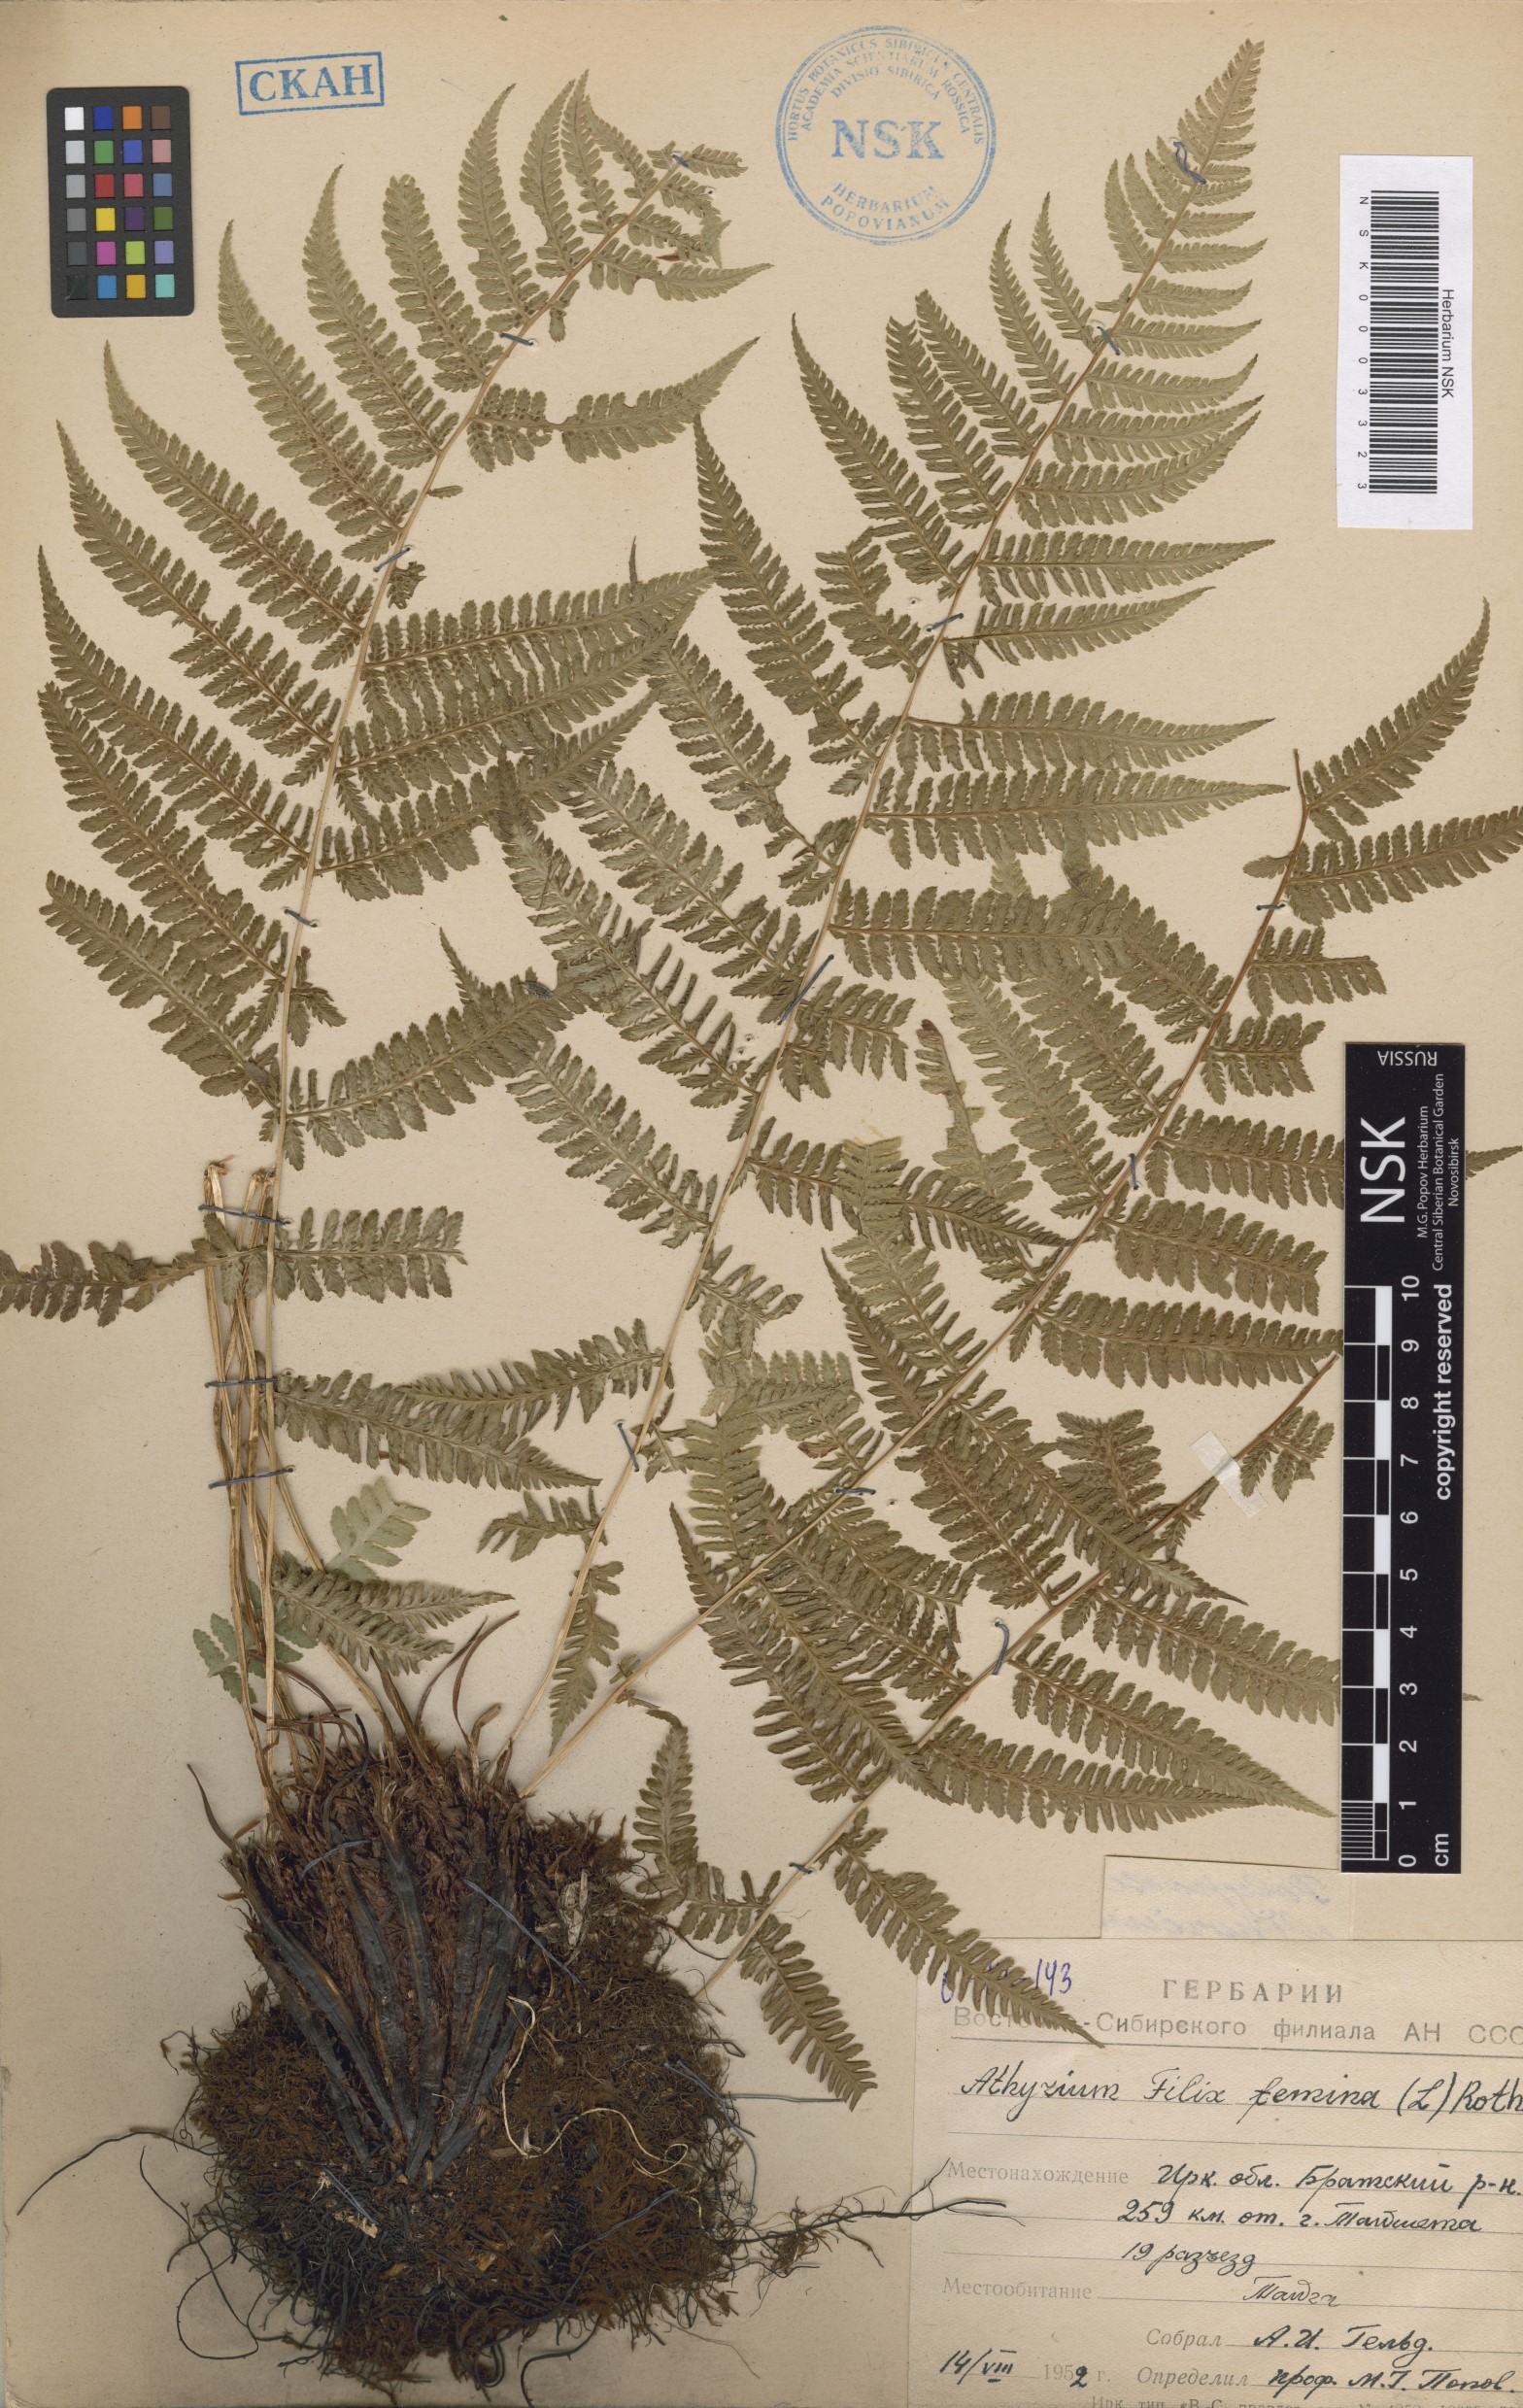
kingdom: Plantae
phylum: Tracheophyta
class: Polypodiopsida
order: Polypodiales
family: Athyriaceae
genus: Athyrium
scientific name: Athyrium filix-femina
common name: Lady fern
